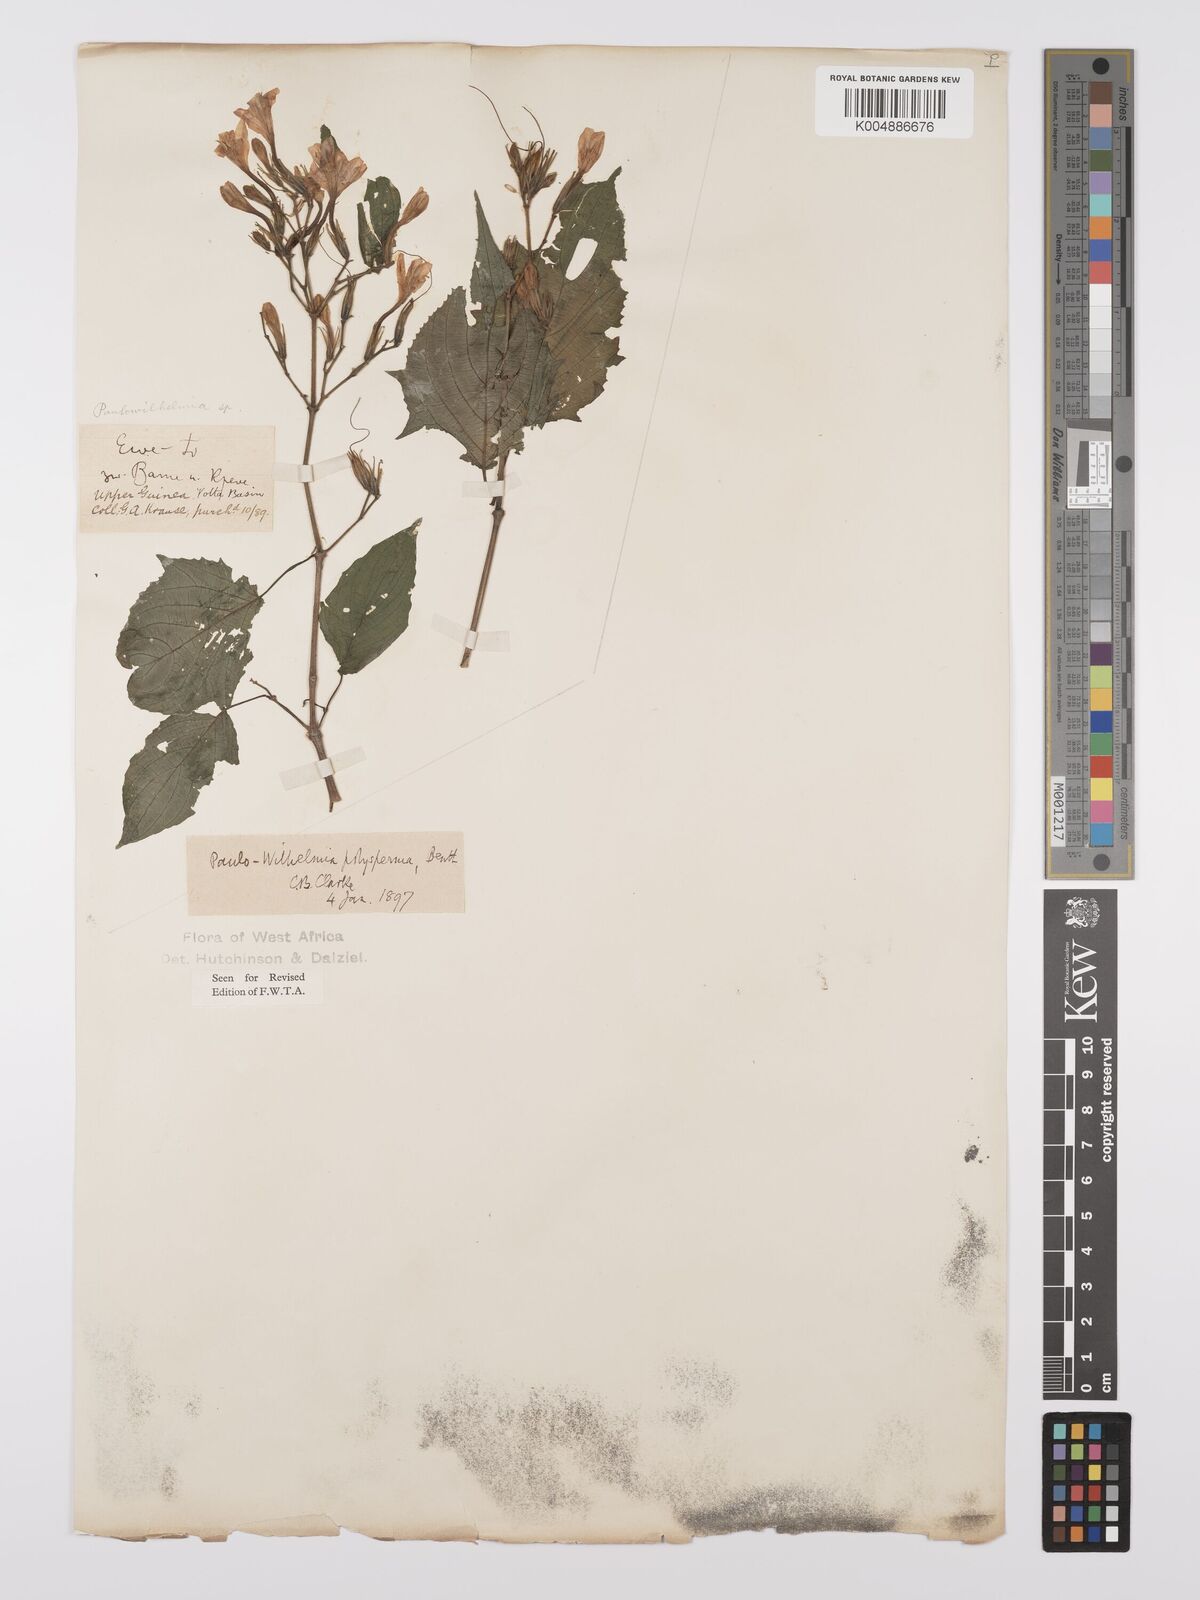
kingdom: Plantae
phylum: Tracheophyta
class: Magnoliopsida
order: Lamiales
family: Acanthaceae
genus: Eremomastax
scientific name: Eremomastax speciosa
